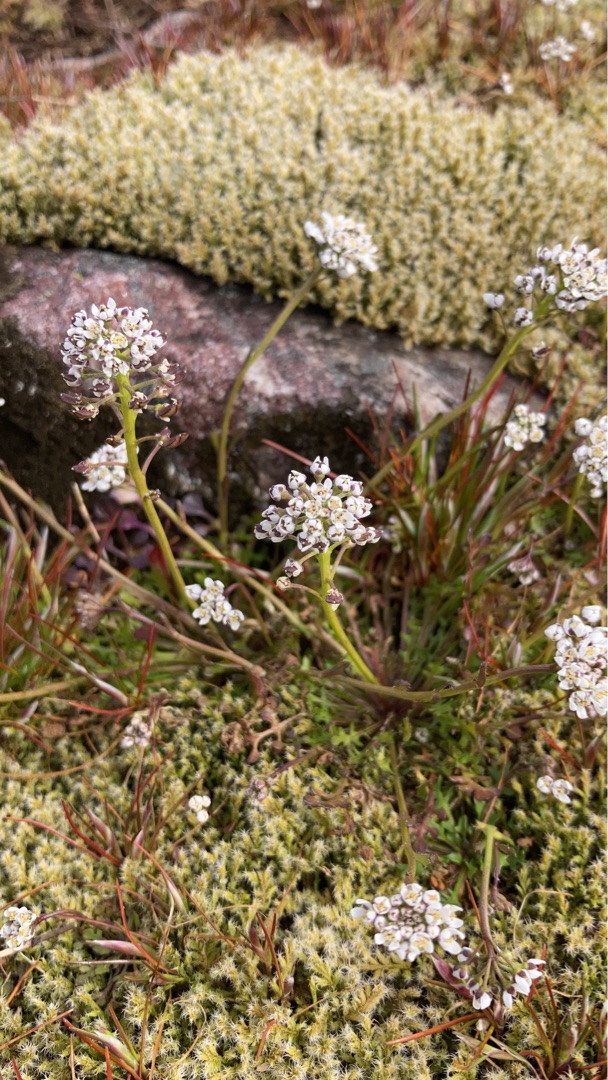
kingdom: Plantae
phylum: Tracheophyta
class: Magnoliopsida
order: Brassicales
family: Brassicaceae
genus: Teesdalia
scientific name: Teesdalia nudicaulis
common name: Flipkrave
